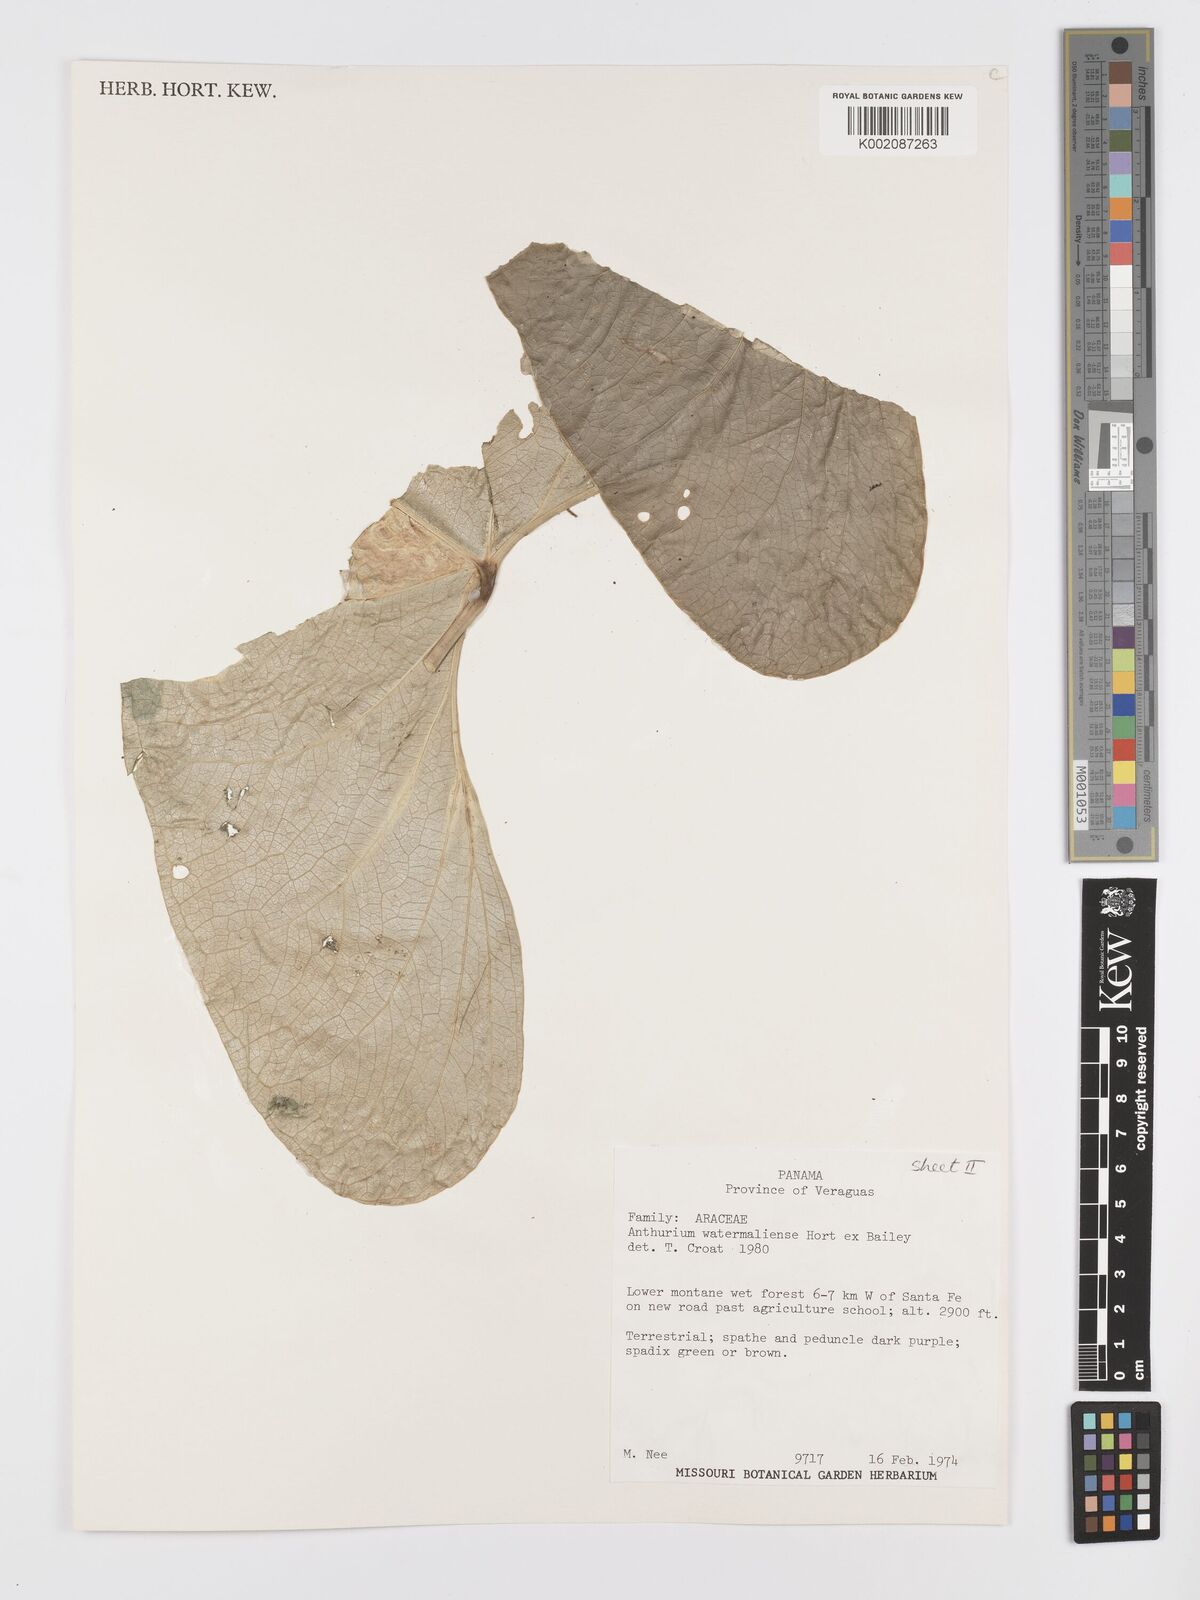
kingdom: Plantae
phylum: Tracheophyta
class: Liliopsida
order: Alismatales
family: Araceae
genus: Anthurium
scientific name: Anthurium watermaliense
